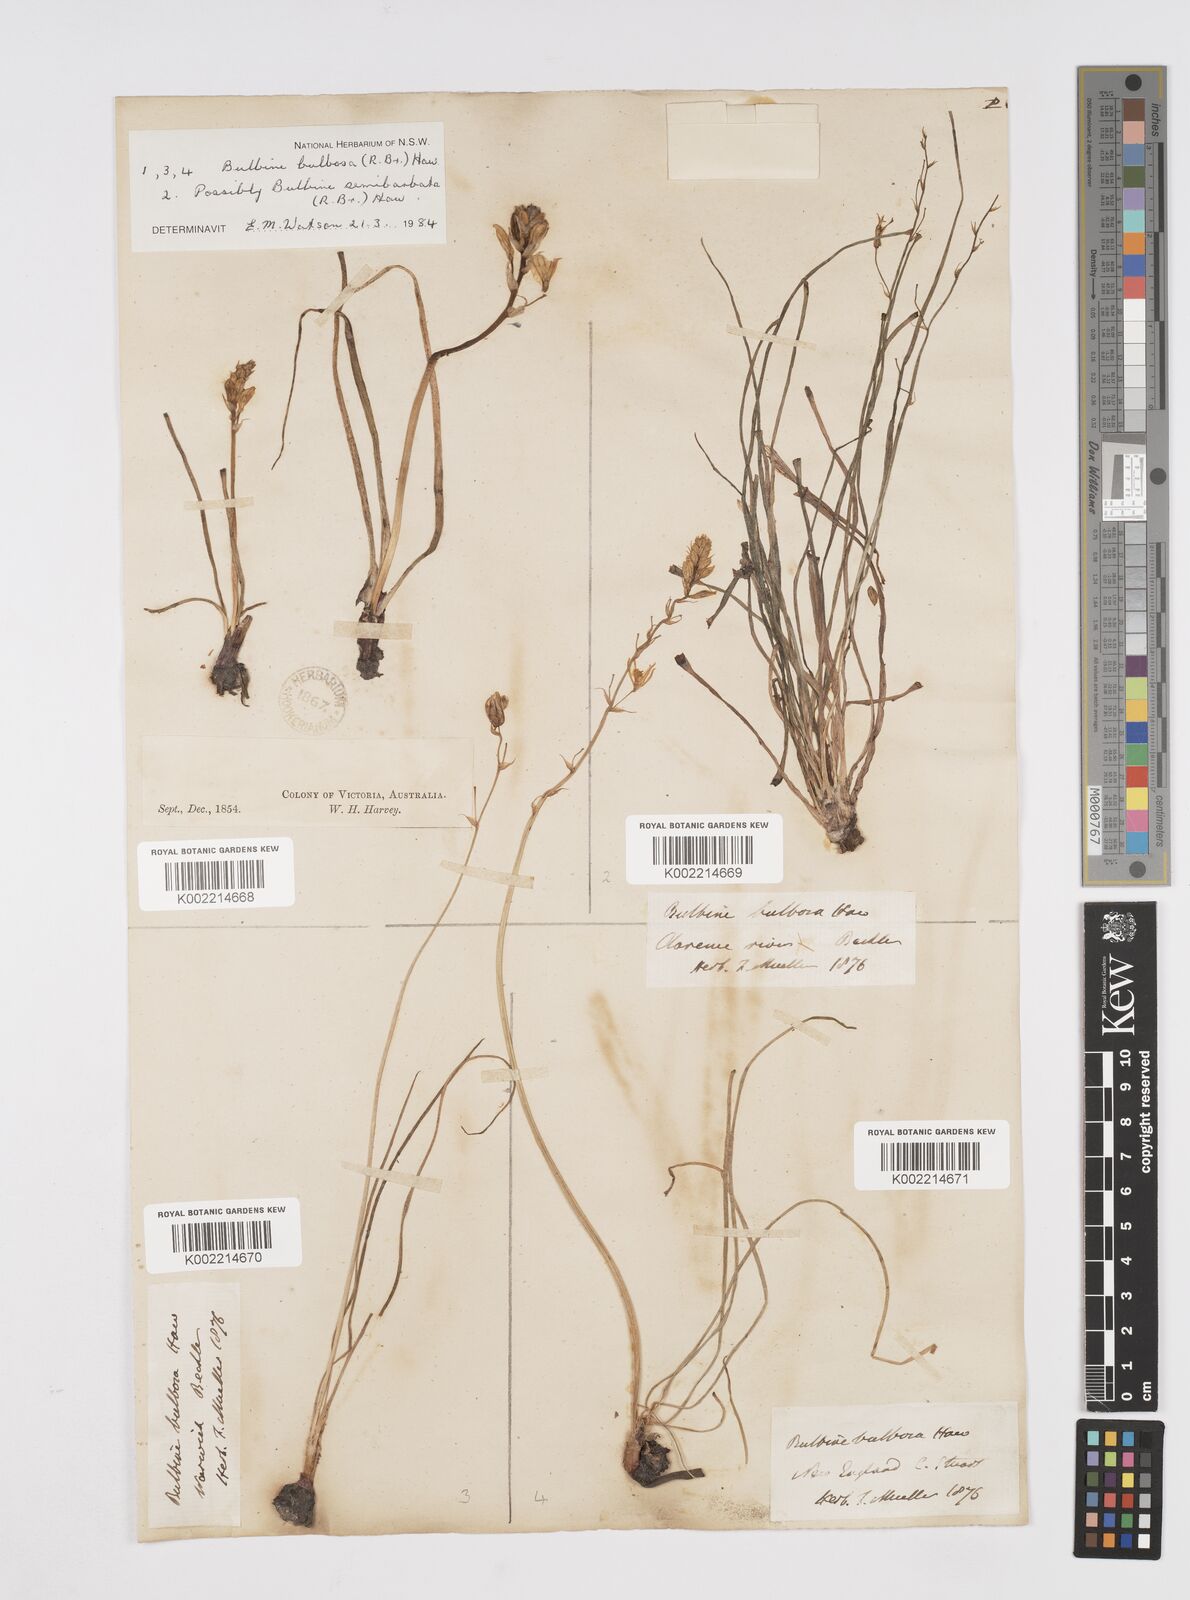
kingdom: Plantae
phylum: Tracheophyta
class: Liliopsida
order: Asparagales
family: Asphodelaceae
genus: Bulbine
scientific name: Bulbine bulbosa
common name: Golden-lily
